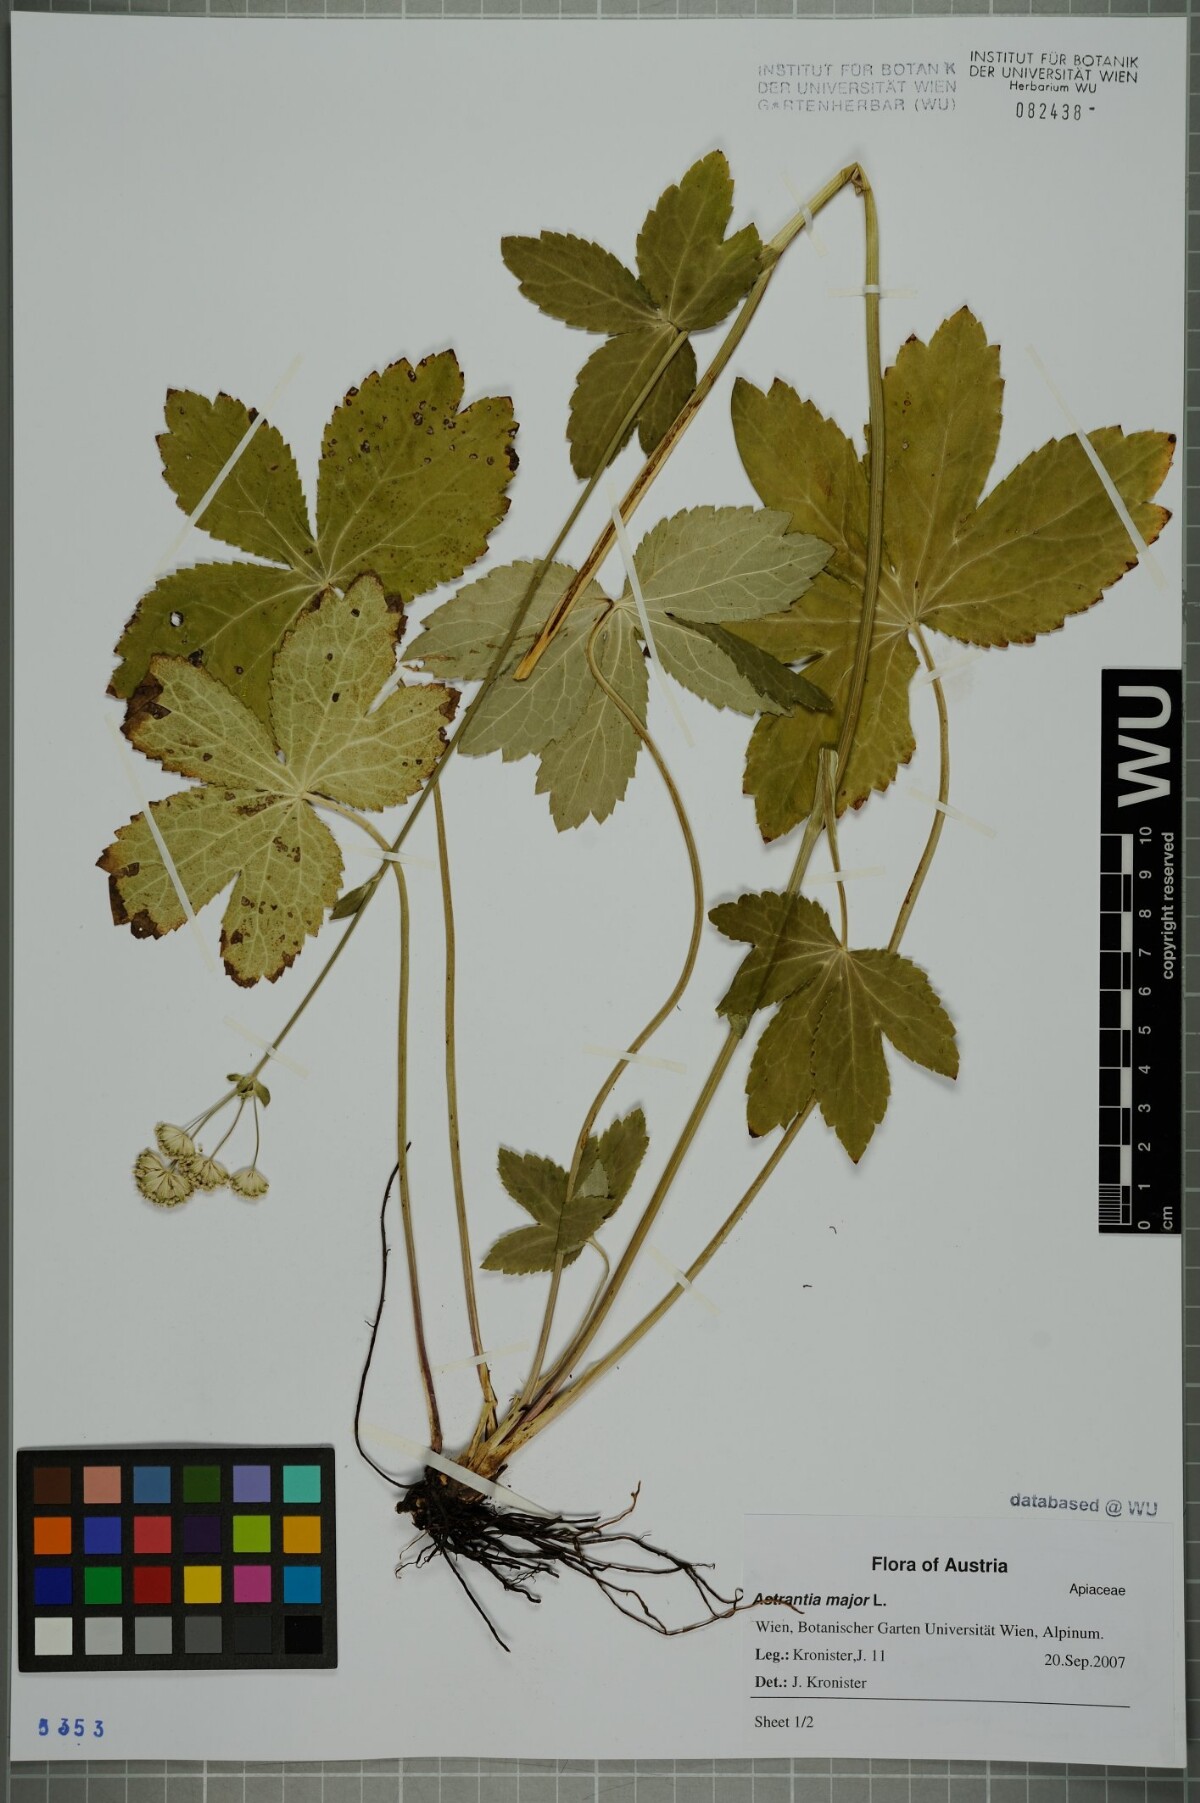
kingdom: Plantae
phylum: Tracheophyta
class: Magnoliopsida
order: Apiales
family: Apiaceae
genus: Astrantia
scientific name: Astrantia major
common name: Greater masterwort
